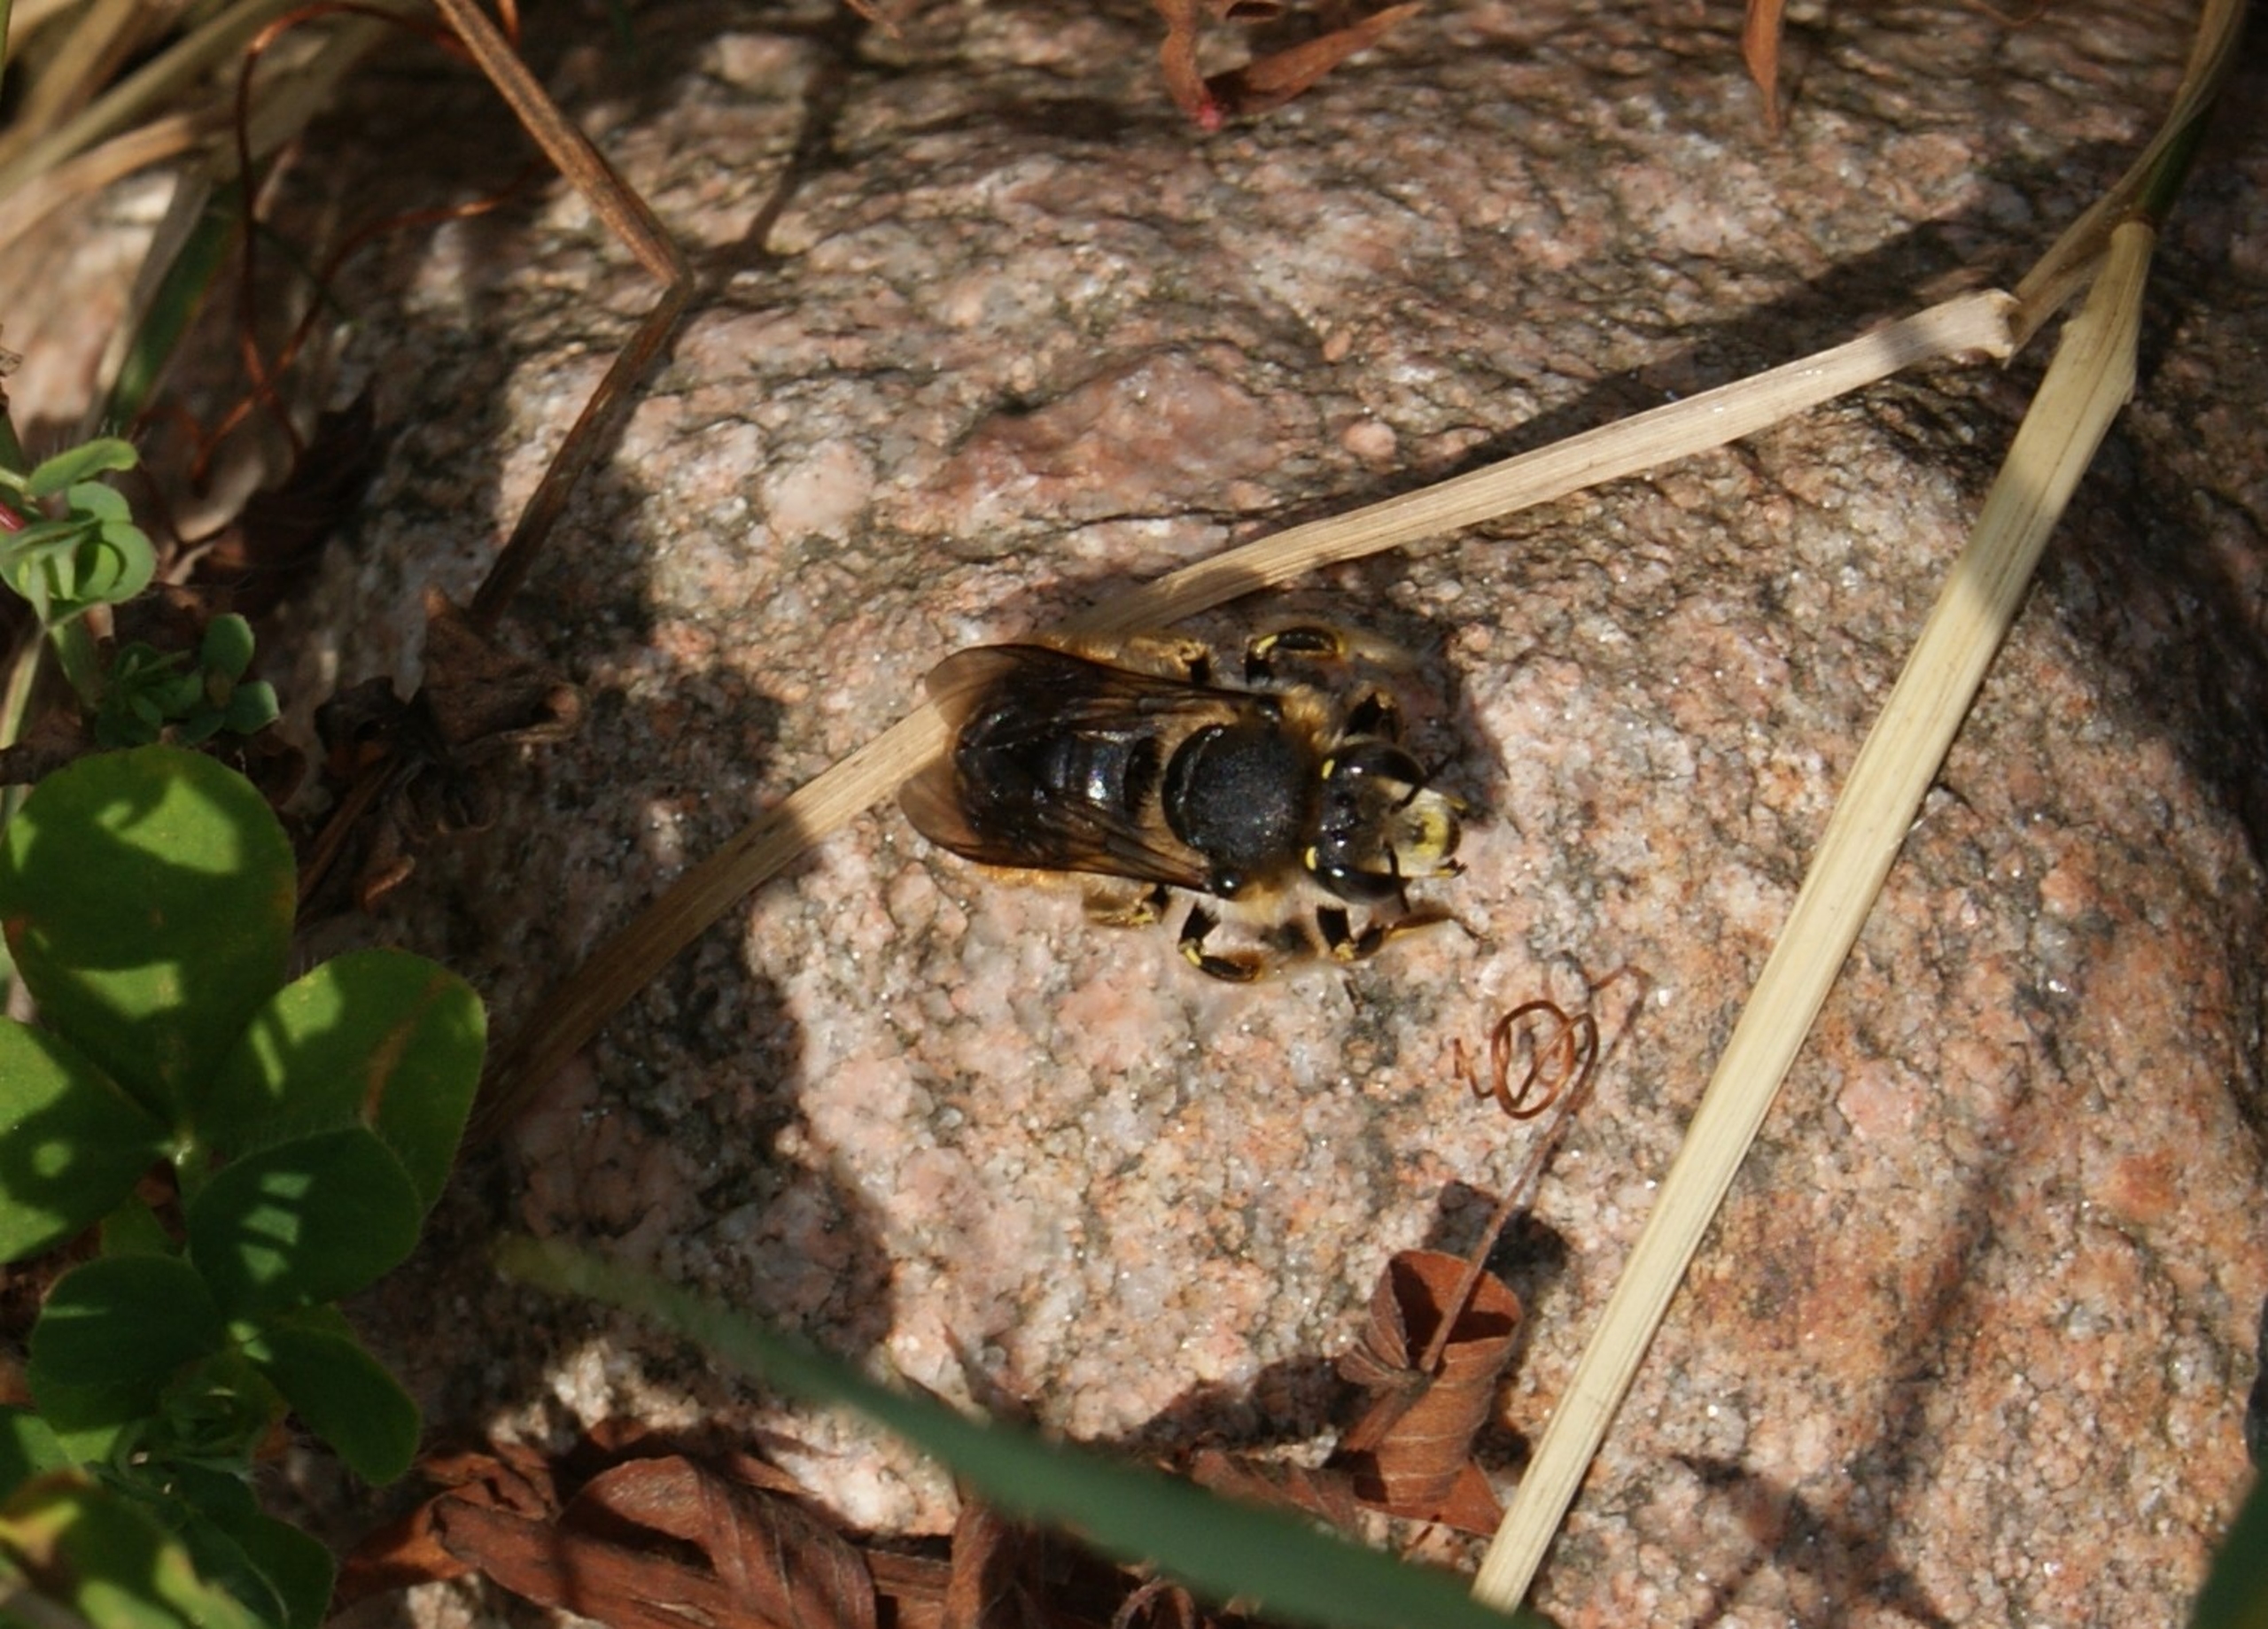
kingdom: Animalia
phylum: Arthropoda
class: Insecta
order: Hymenoptera
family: Megachilidae
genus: Anthidium
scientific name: Anthidium manicatum
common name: Stor uldbi
